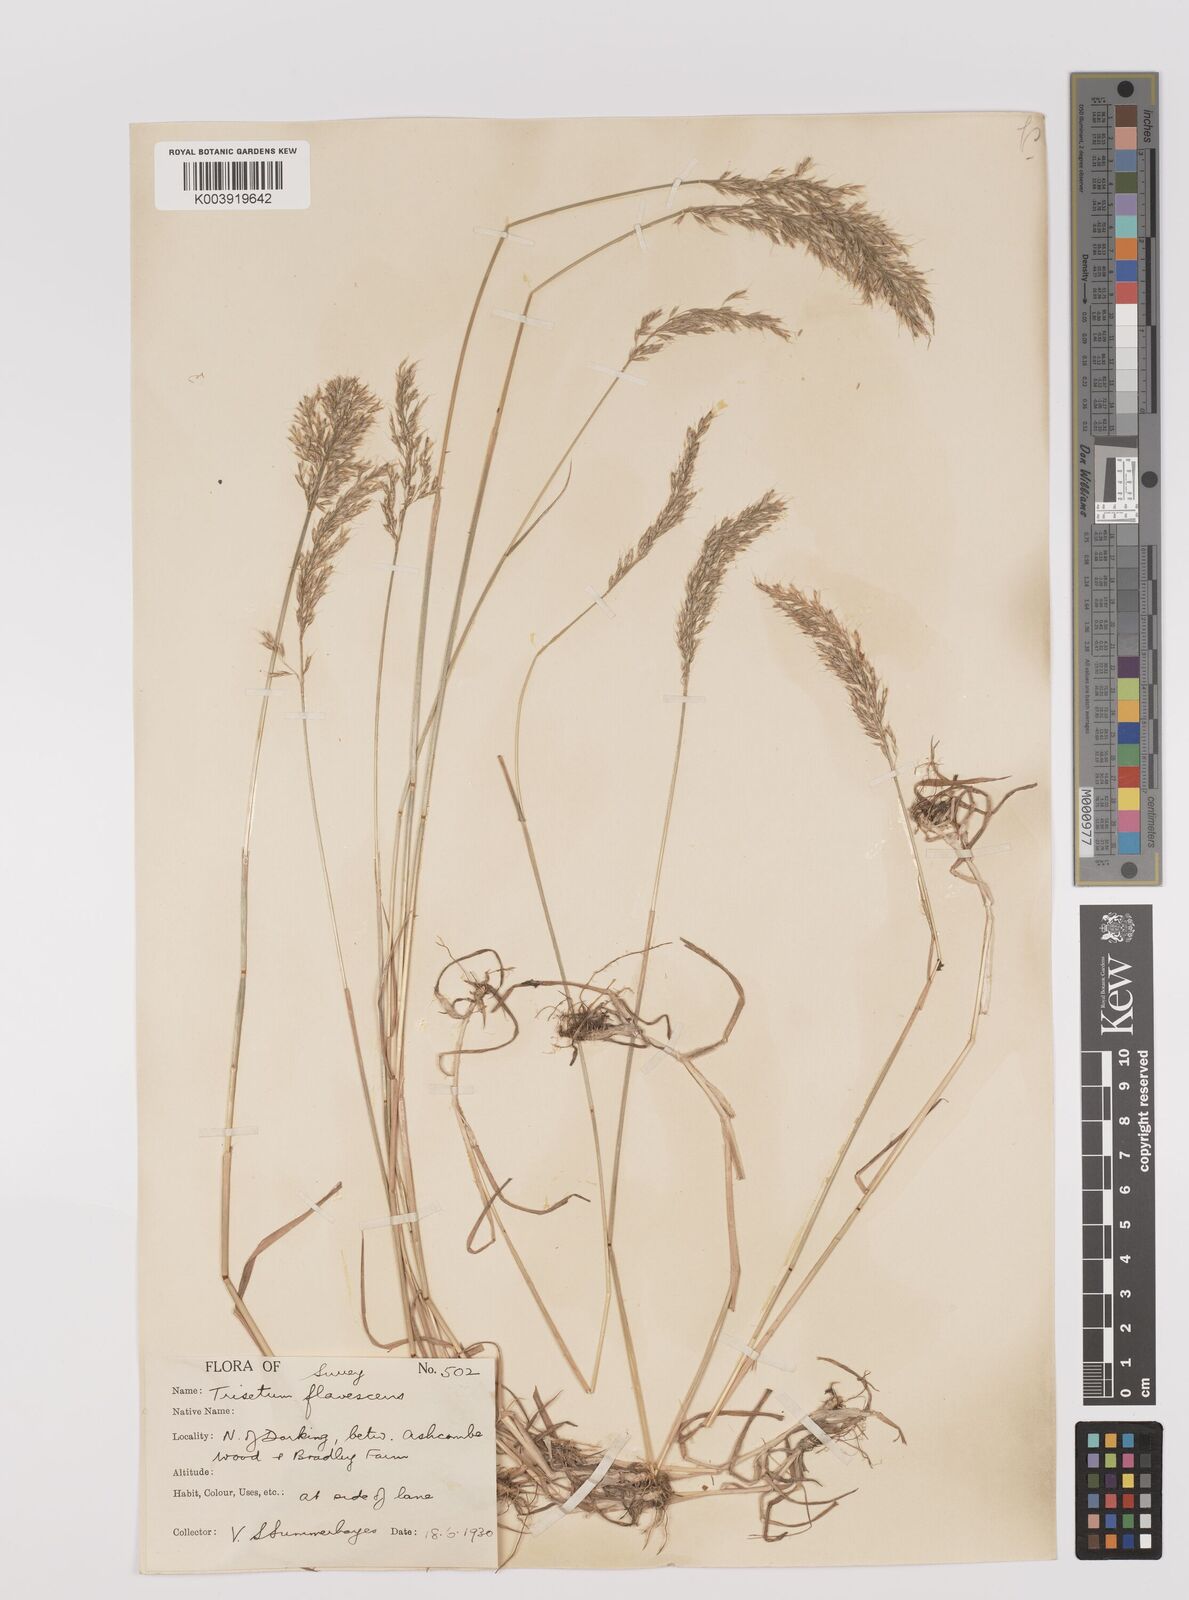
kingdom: Plantae
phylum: Tracheophyta
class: Liliopsida
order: Poales
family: Poaceae
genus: Trisetum
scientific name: Trisetum flavescens
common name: Yellow oat-grass
